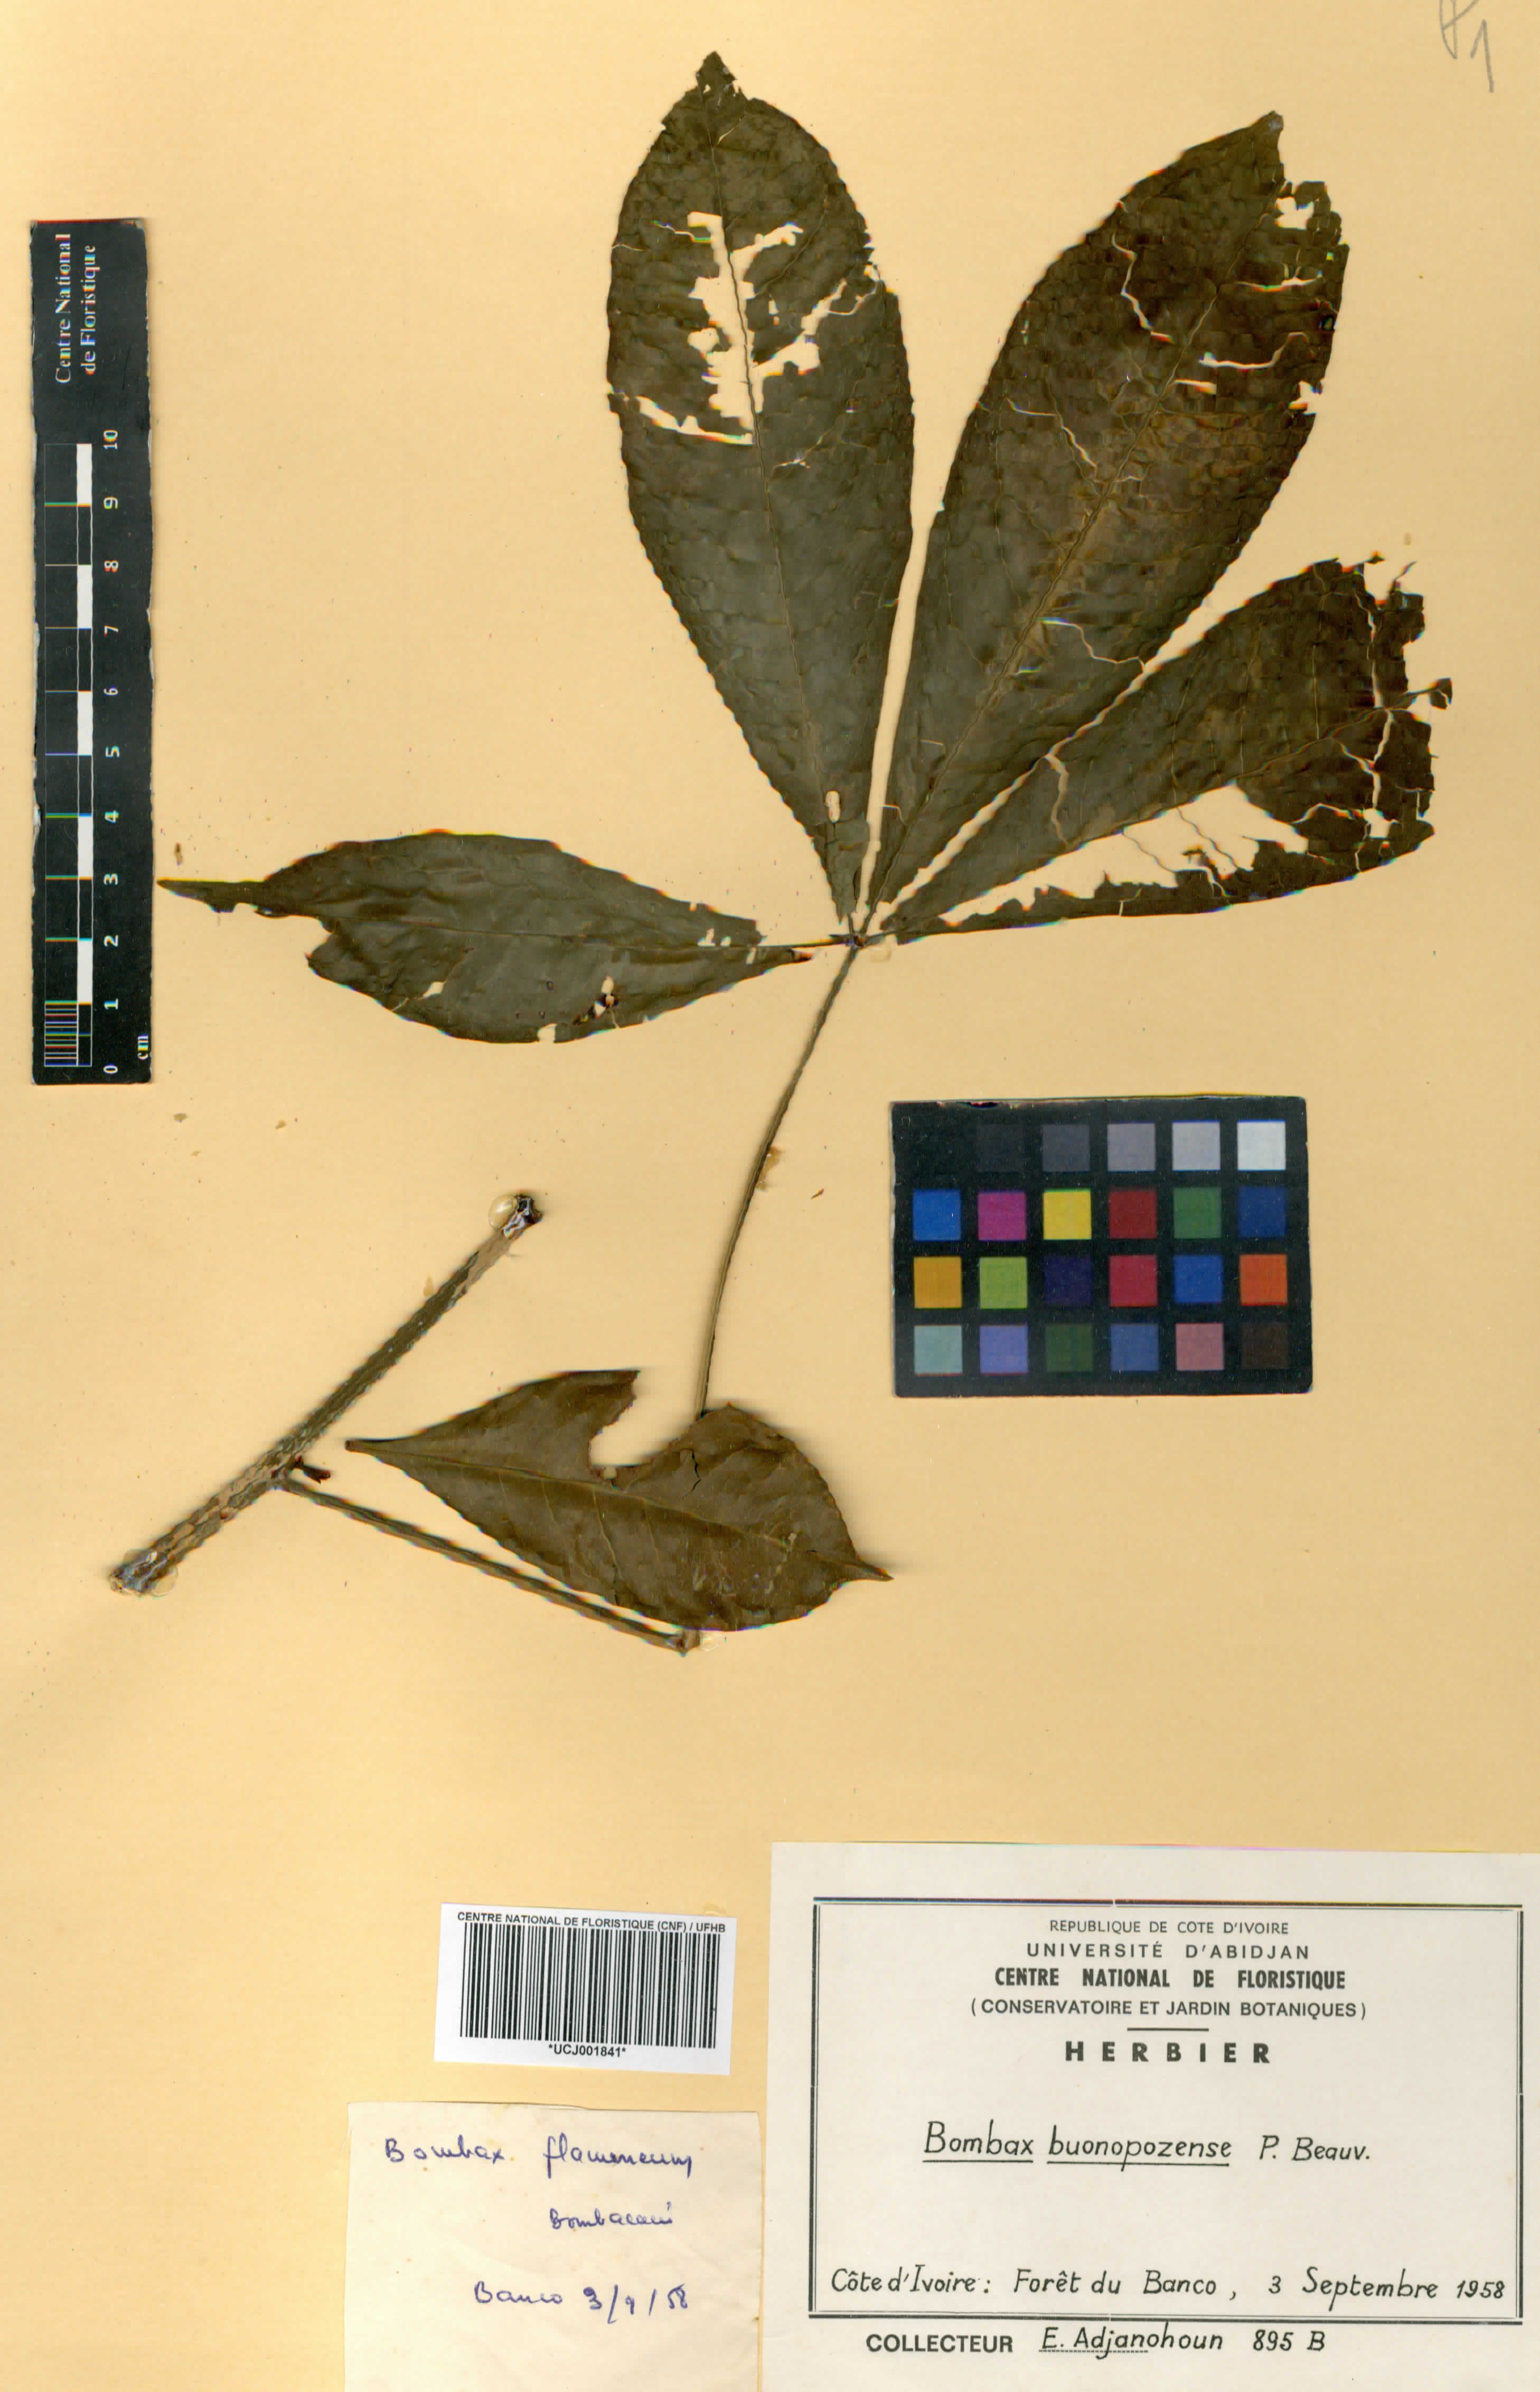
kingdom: Plantae
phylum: Tracheophyta
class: Magnoliopsida
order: Malvales
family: Malvaceae
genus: Bombax
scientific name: Bombax buonopozense
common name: Gold coast bombax
